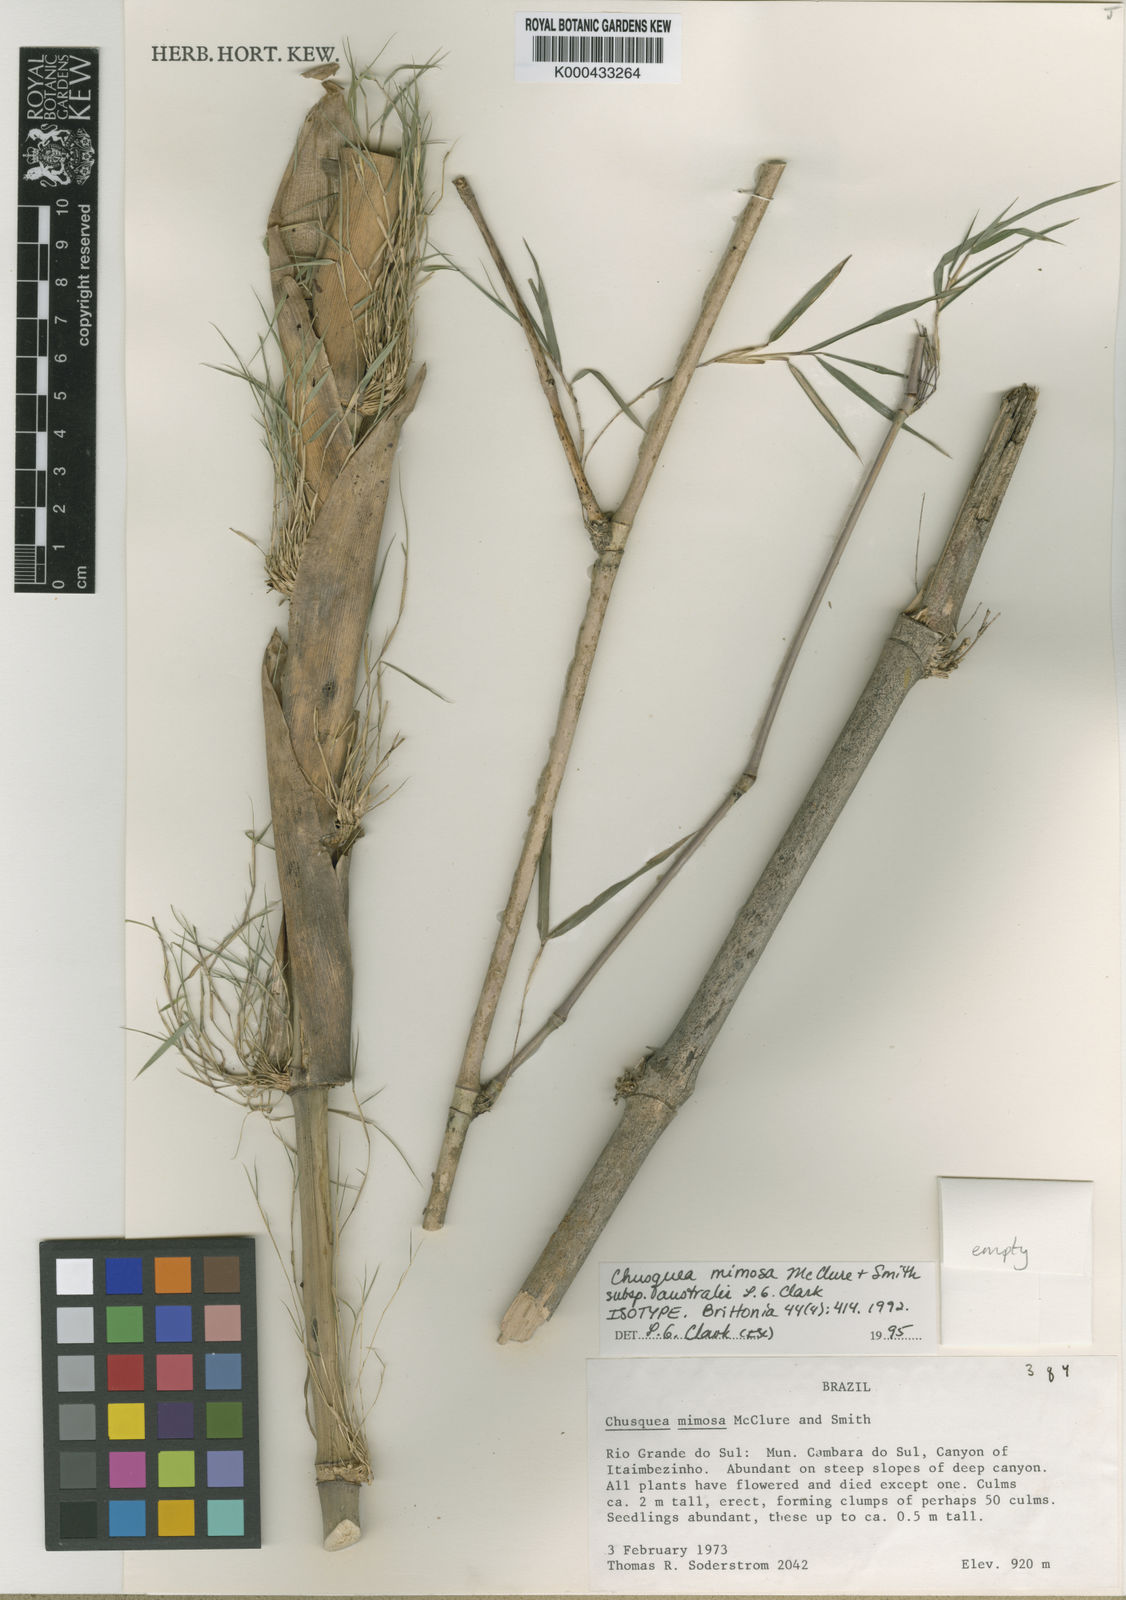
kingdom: Plantae
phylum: Tracheophyta
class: Liliopsida
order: Poales
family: Poaceae
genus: Chusquea
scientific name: Chusquea mimosa
